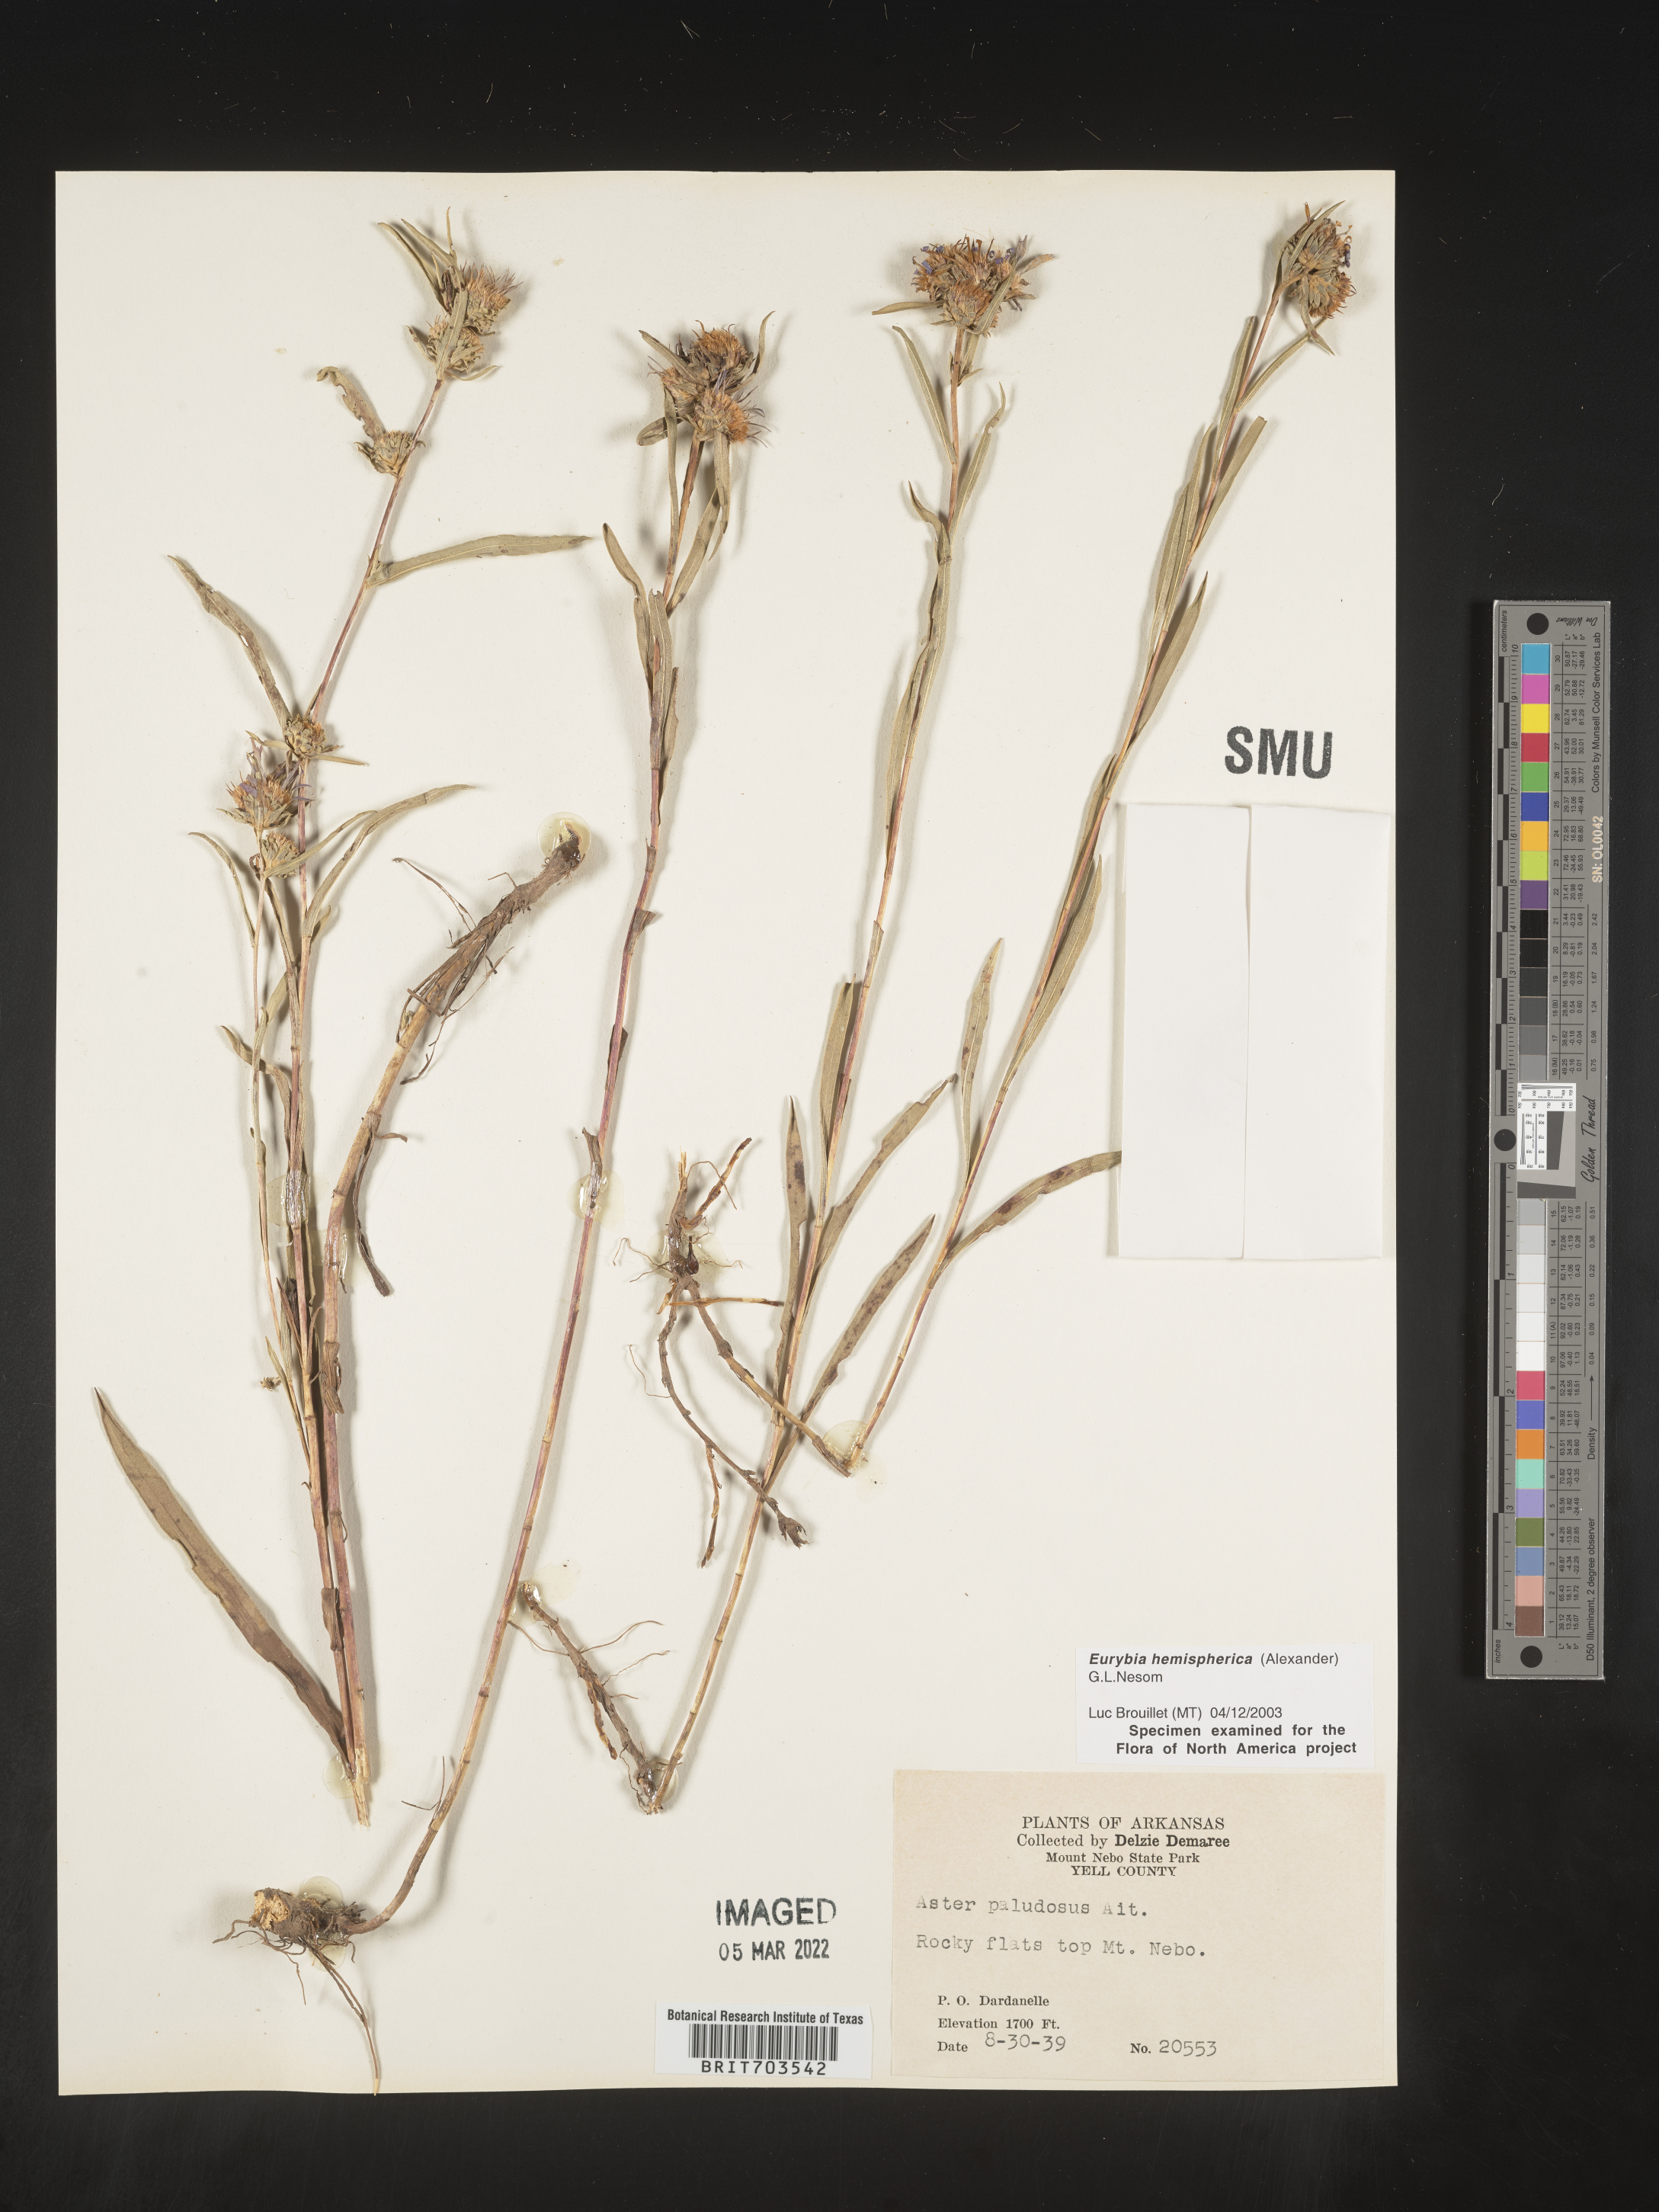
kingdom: Plantae
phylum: Tracheophyta
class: Magnoliopsida
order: Asterales
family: Asteraceae
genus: Eurybia
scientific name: Eurybia hemispherica
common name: Showy aster
